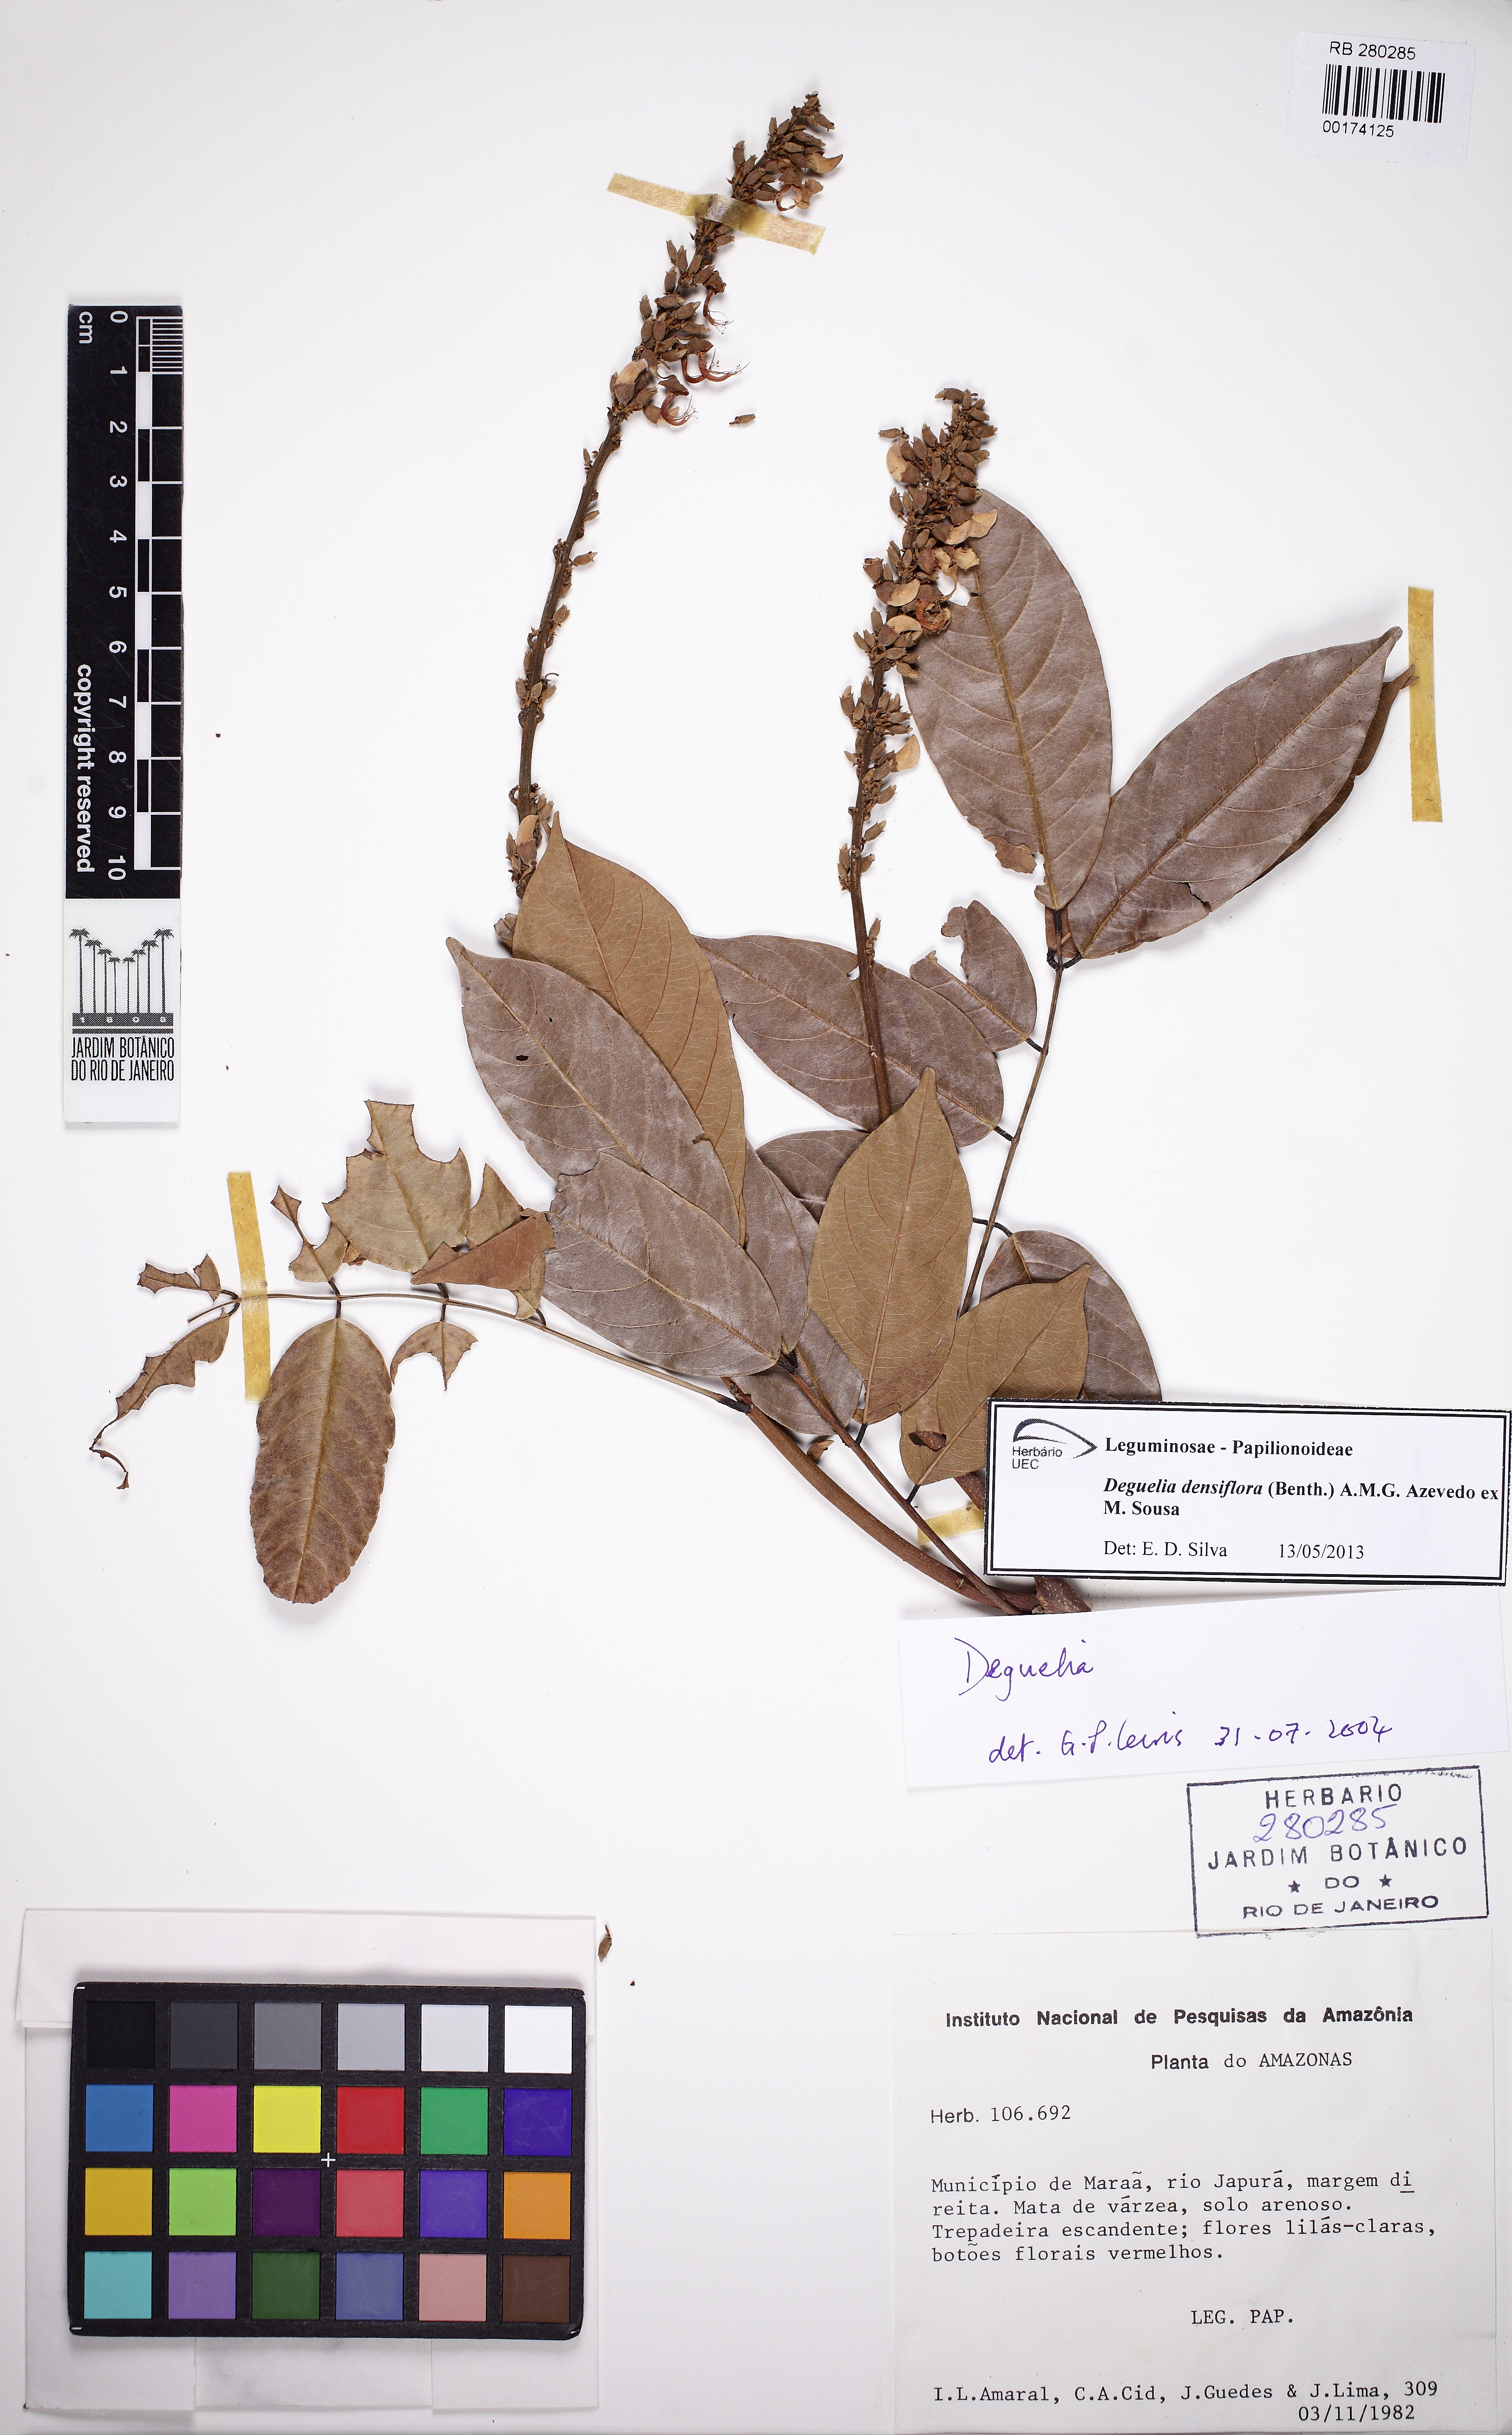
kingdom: Plantae
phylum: Tracheophyta
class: Magnoliopsida
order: Fabales
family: Fabaceae
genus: Deguelia
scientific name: Deguelia densiflora
